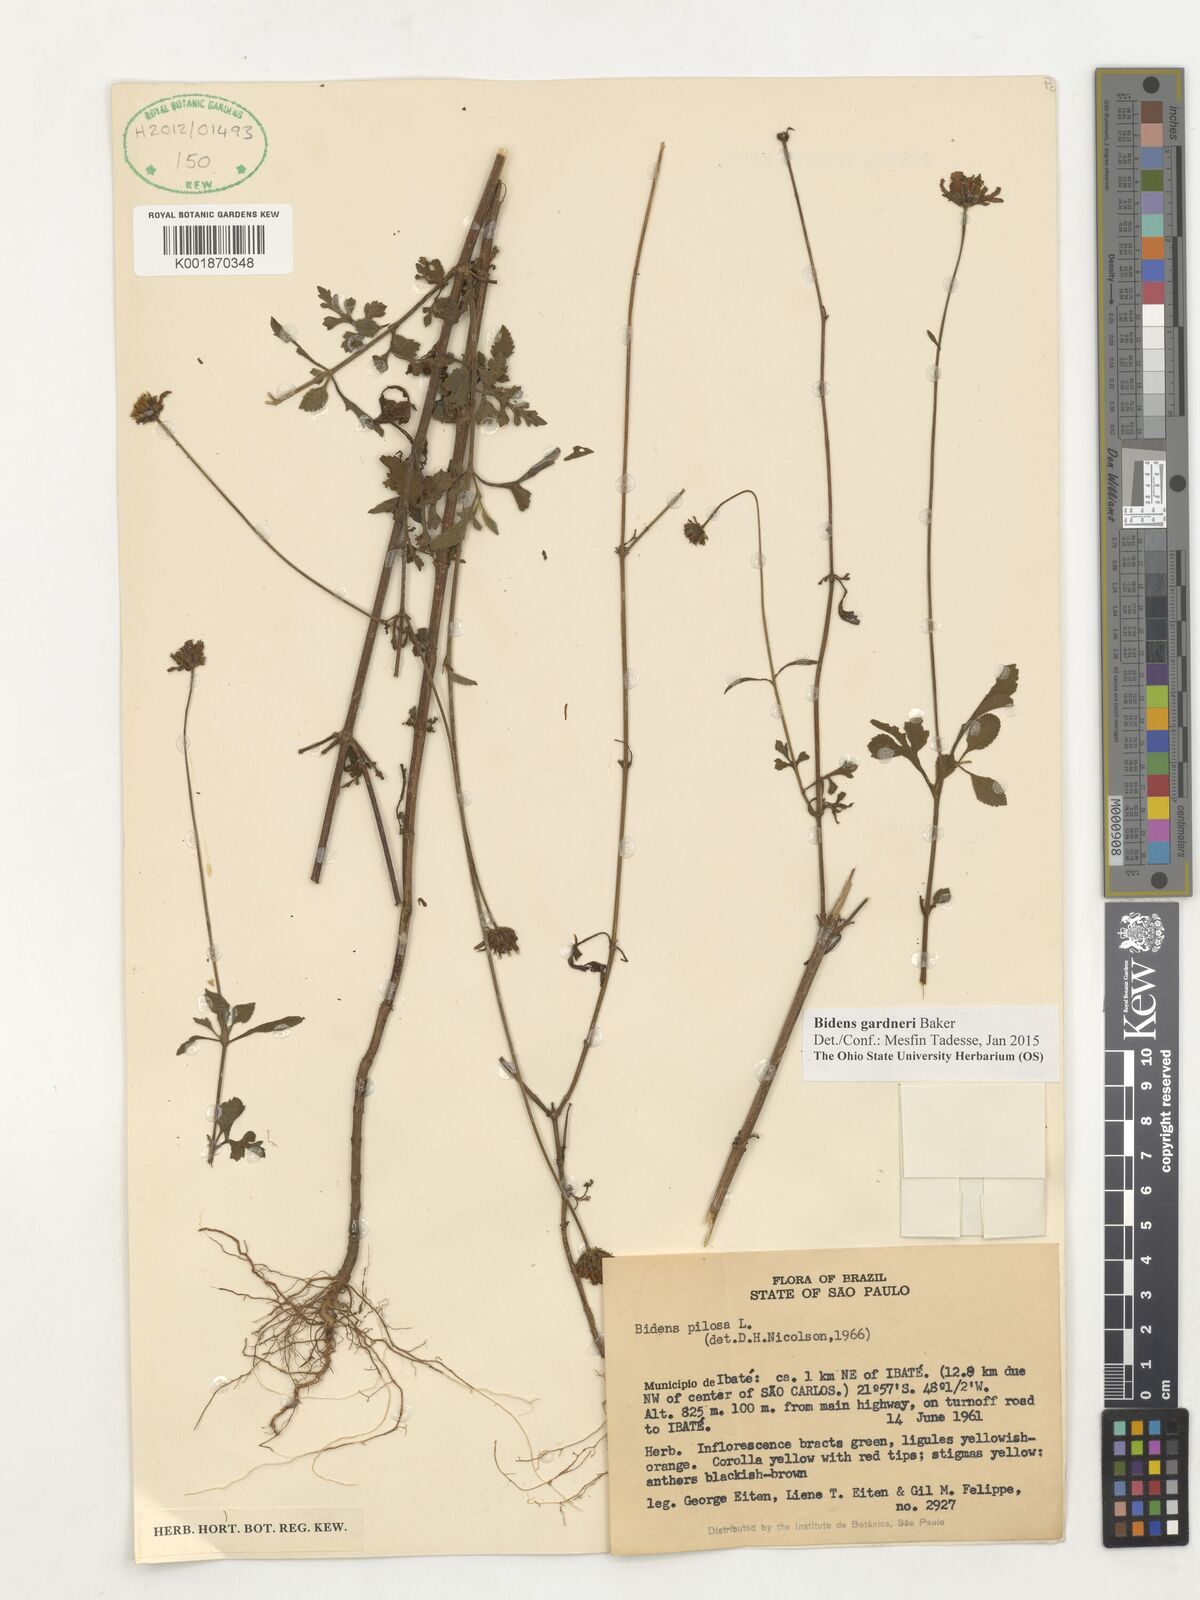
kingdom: Plantae
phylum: Tracheophyta
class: Magnoliopsida
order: Asterales
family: Asteraceae
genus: Bidens
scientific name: Bidens gardneri
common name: Ridge beggartick
